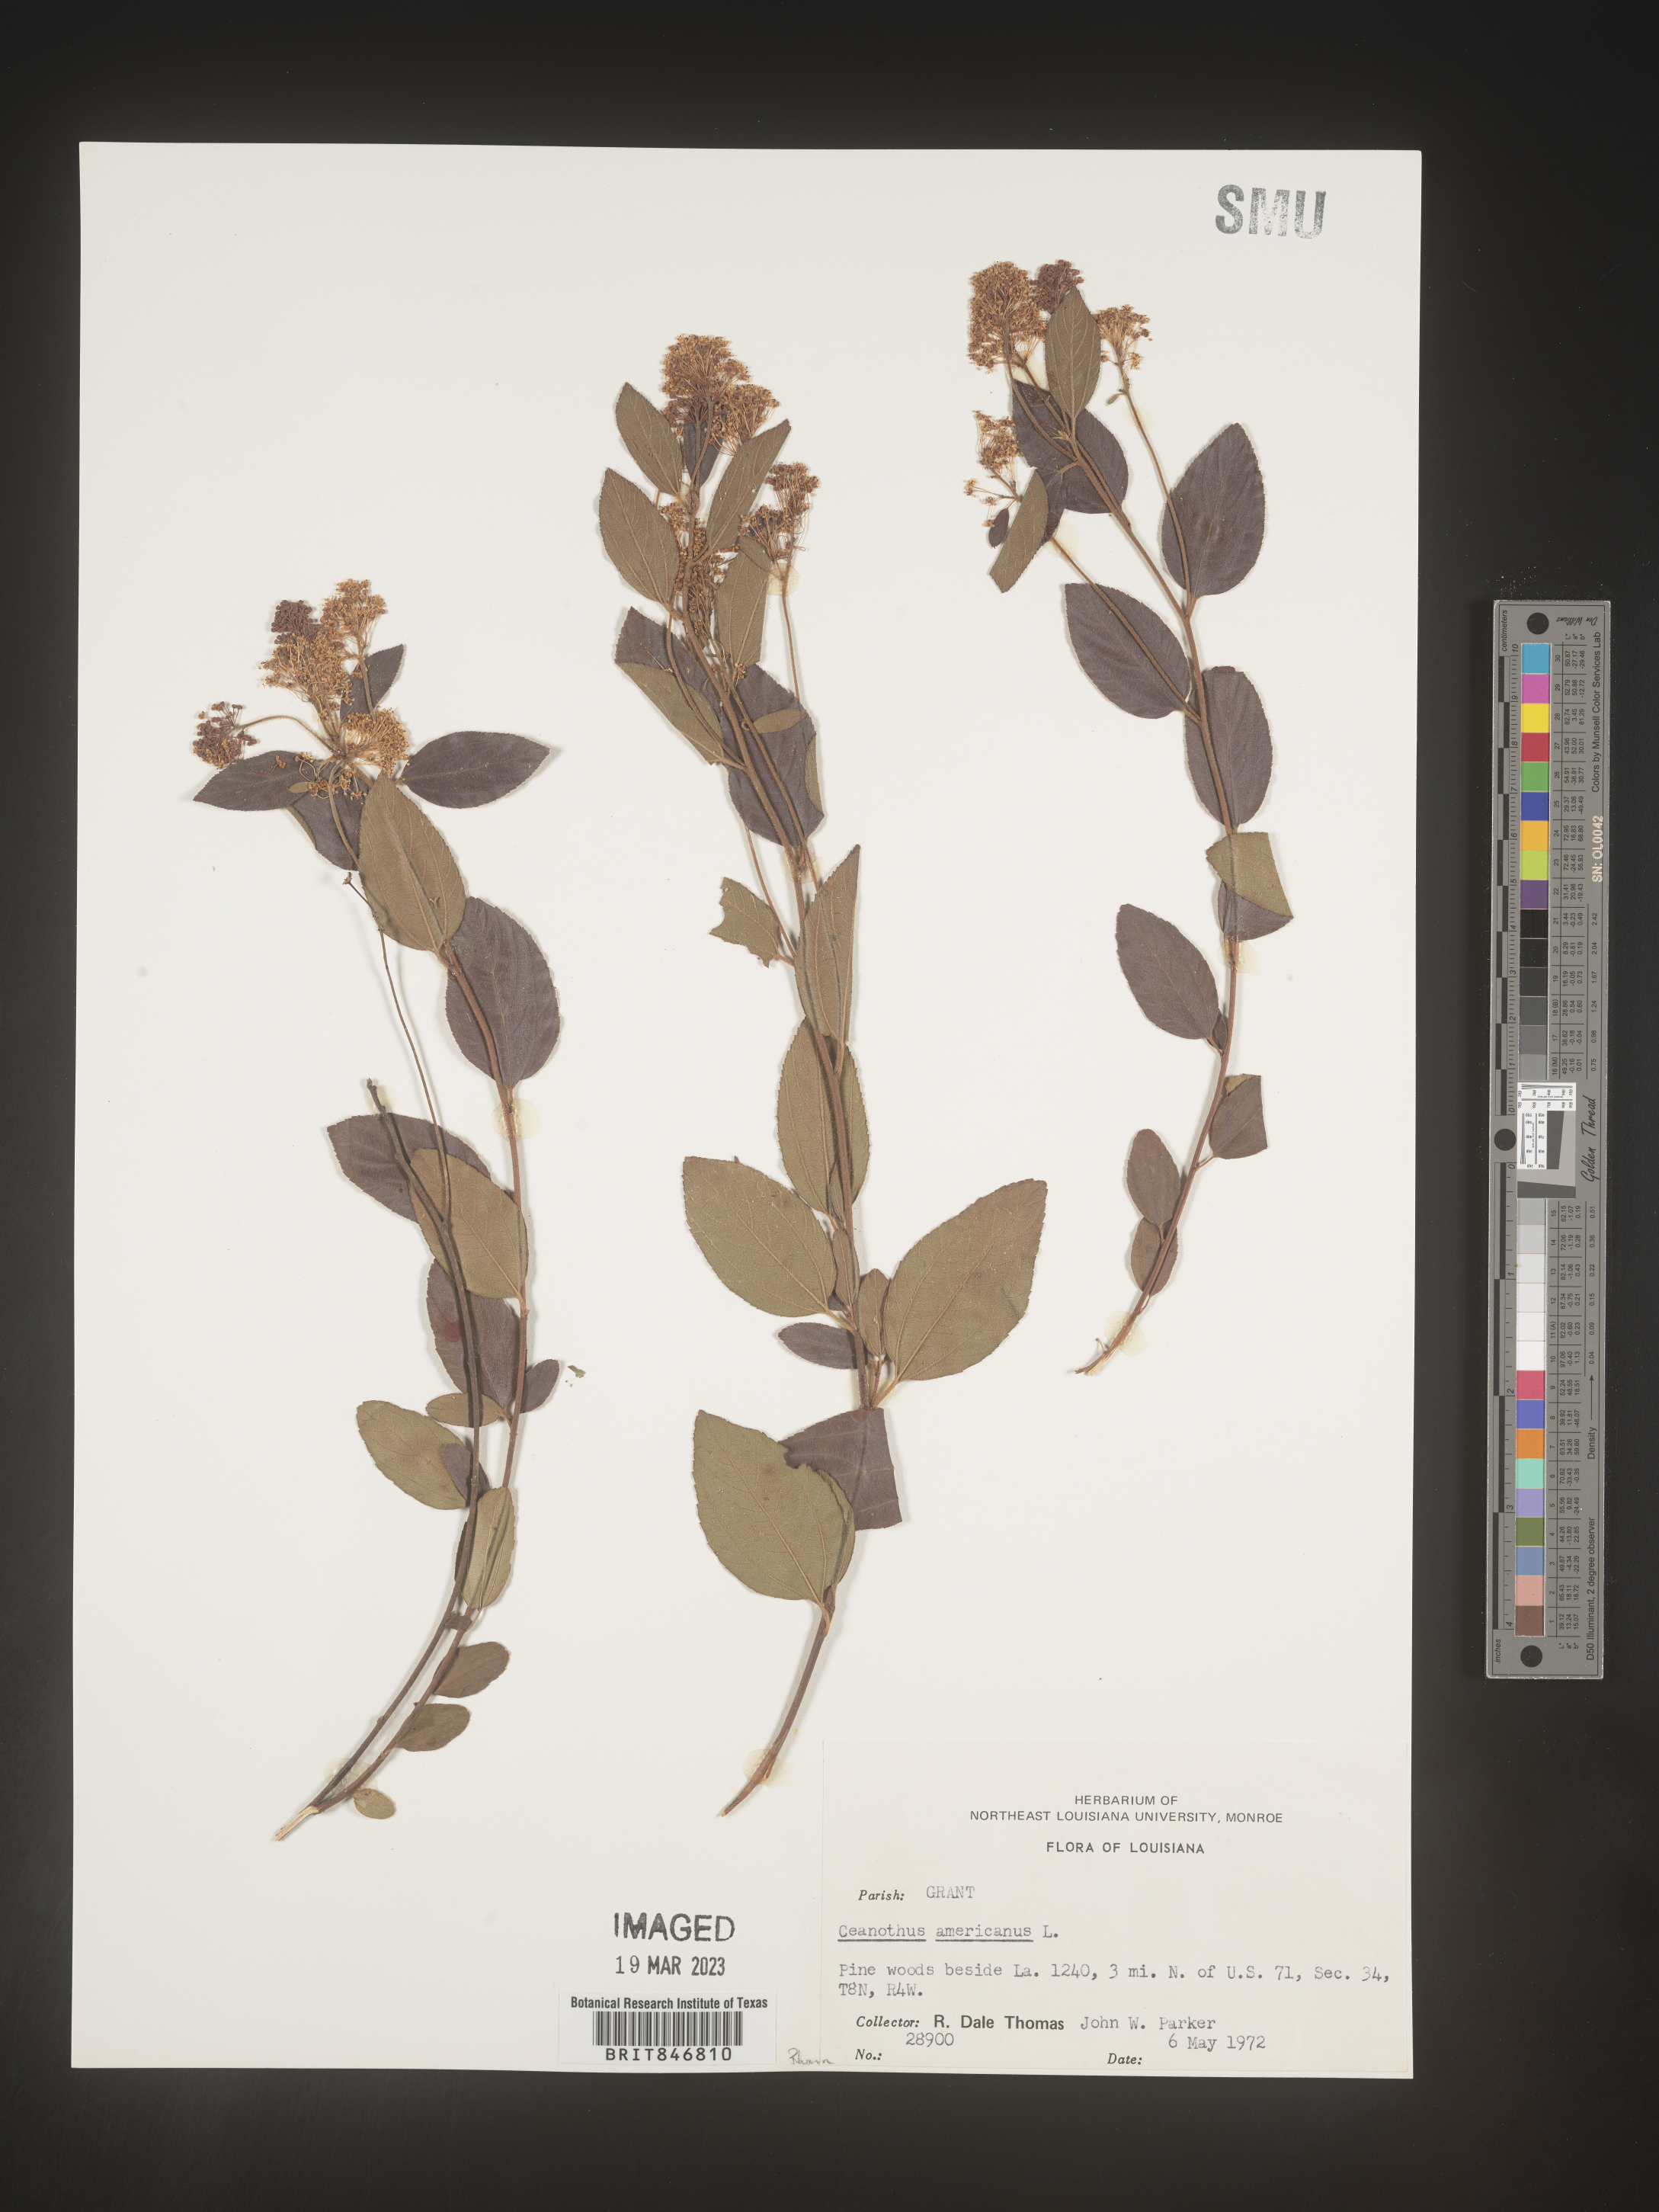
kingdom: Plantae
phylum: Tracheophyta
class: Magnoliopsida
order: Rosales
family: Rhamnaceae
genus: Ceanothus
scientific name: Ceanothus americanus
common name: Redroot
